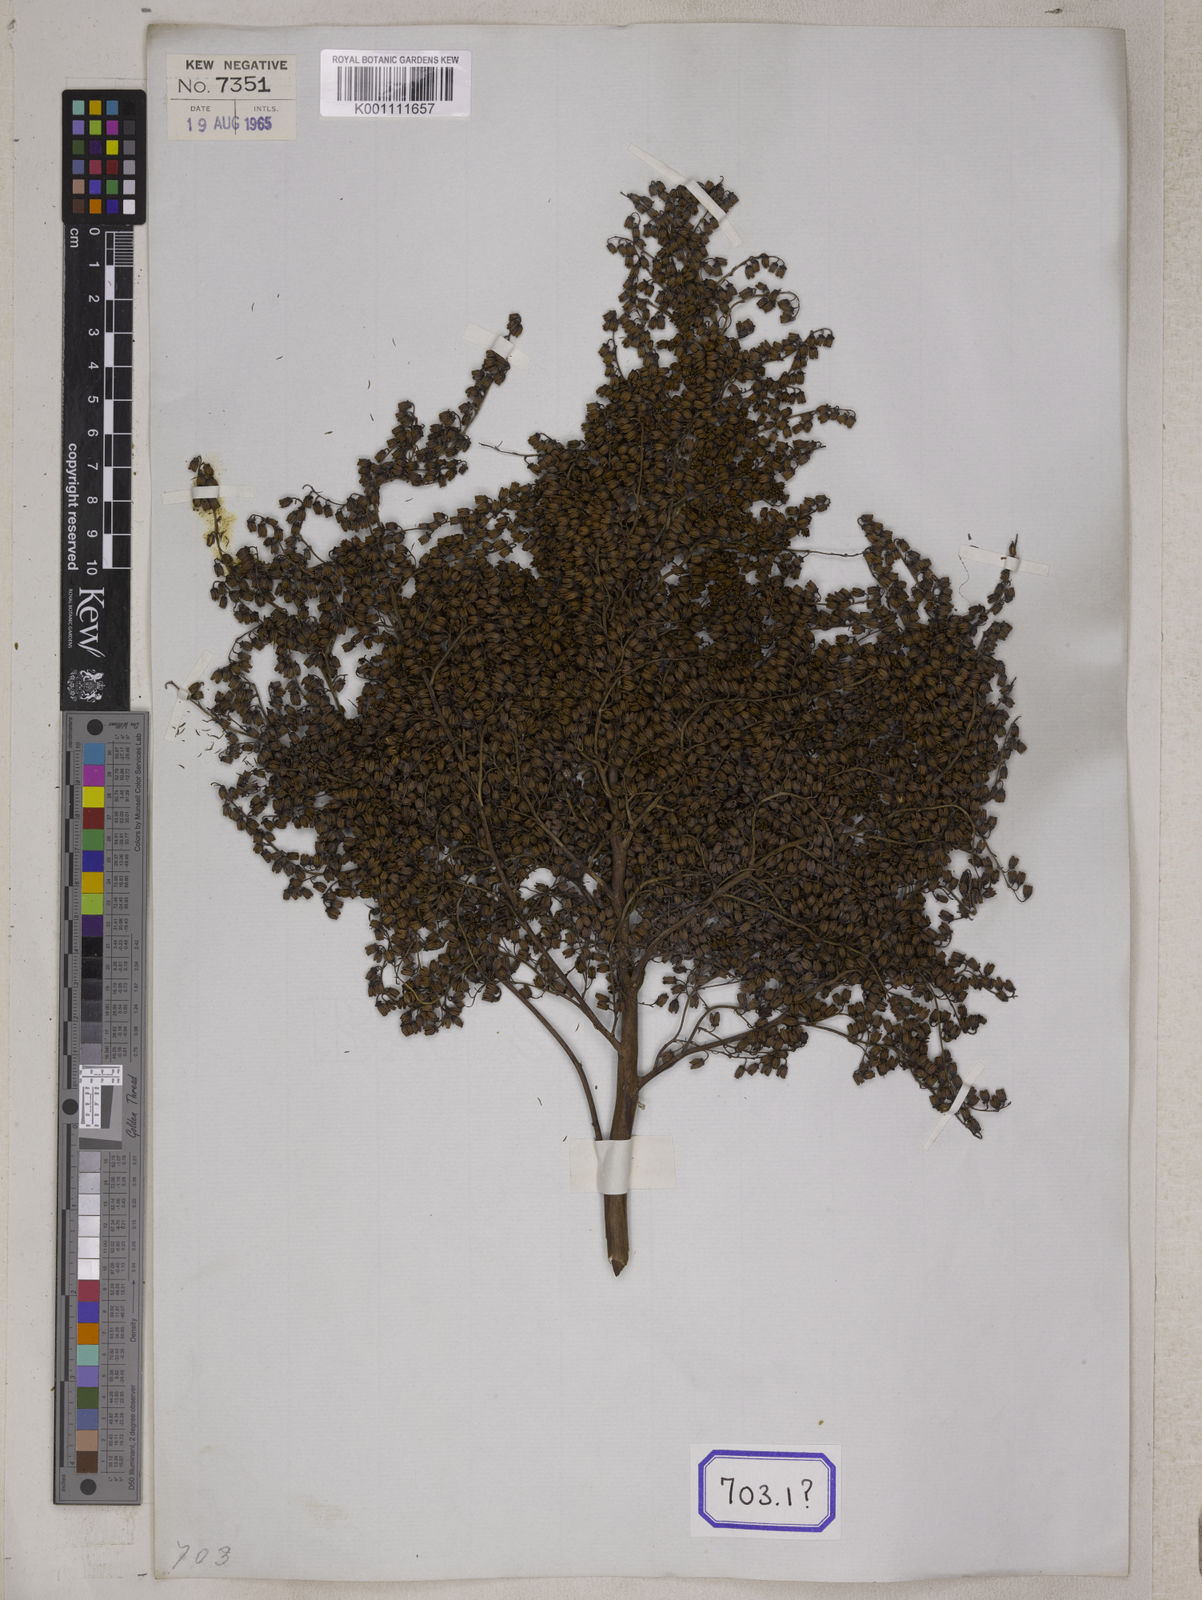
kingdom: Plantae
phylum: Tracheophyta
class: Magnoliopsida
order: Rosales
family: Rosaceae
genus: Spiraea
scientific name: Spiraea
